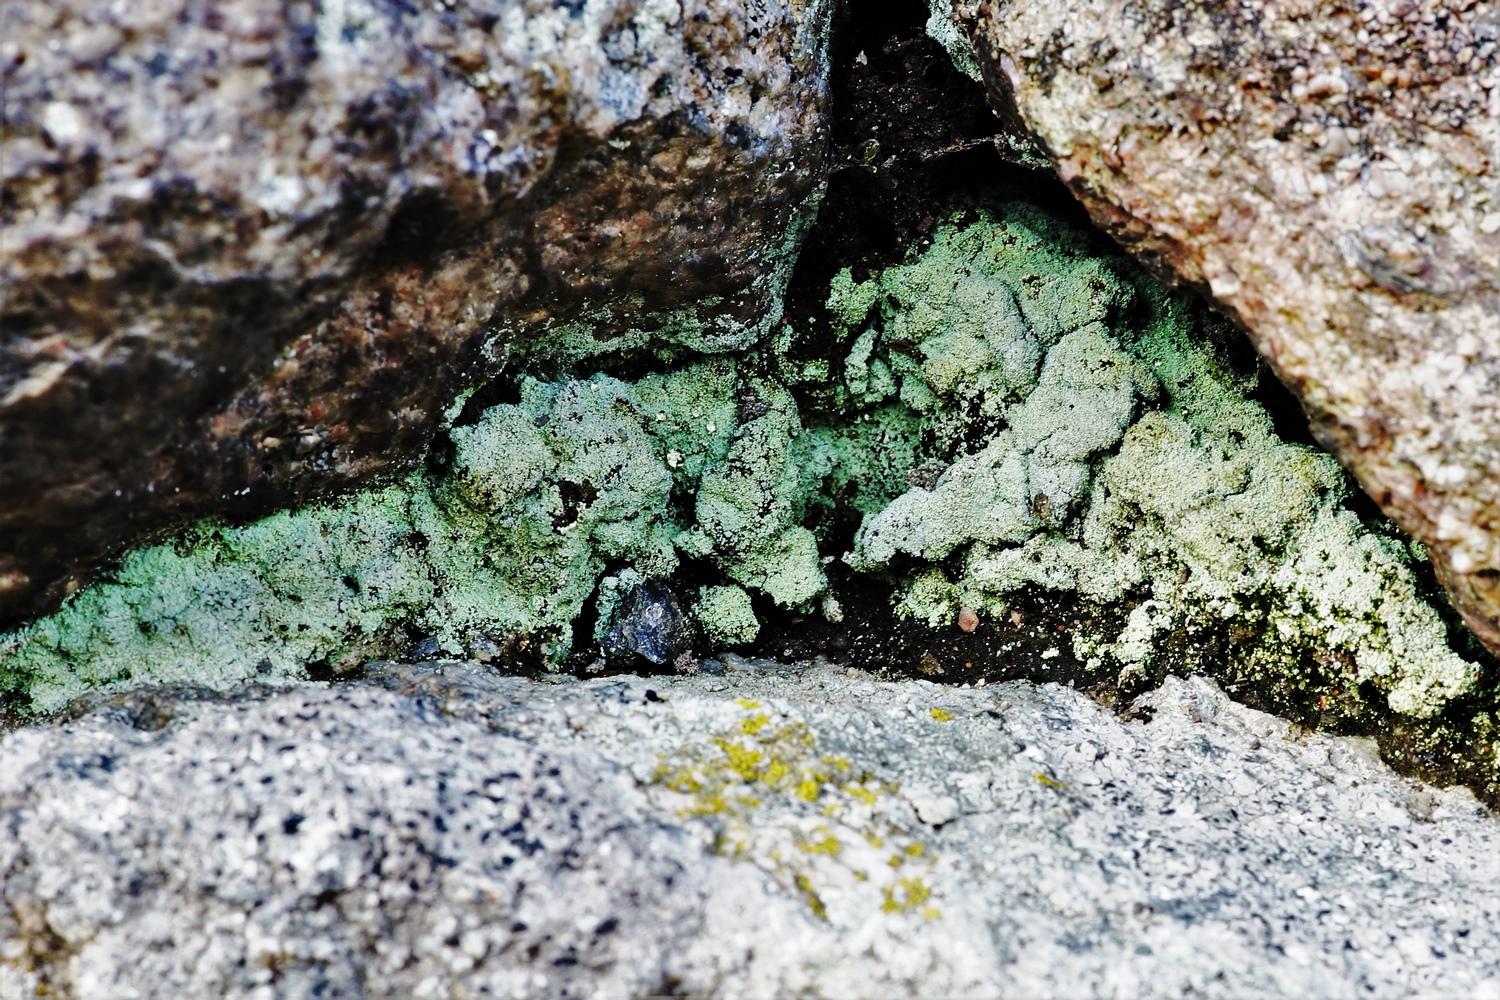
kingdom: Fungi
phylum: Ascomycota
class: Lecanoromycetes
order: Lecanorales
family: Stereocaulaceae
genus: Lepraria
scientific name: Lepraria elobata
